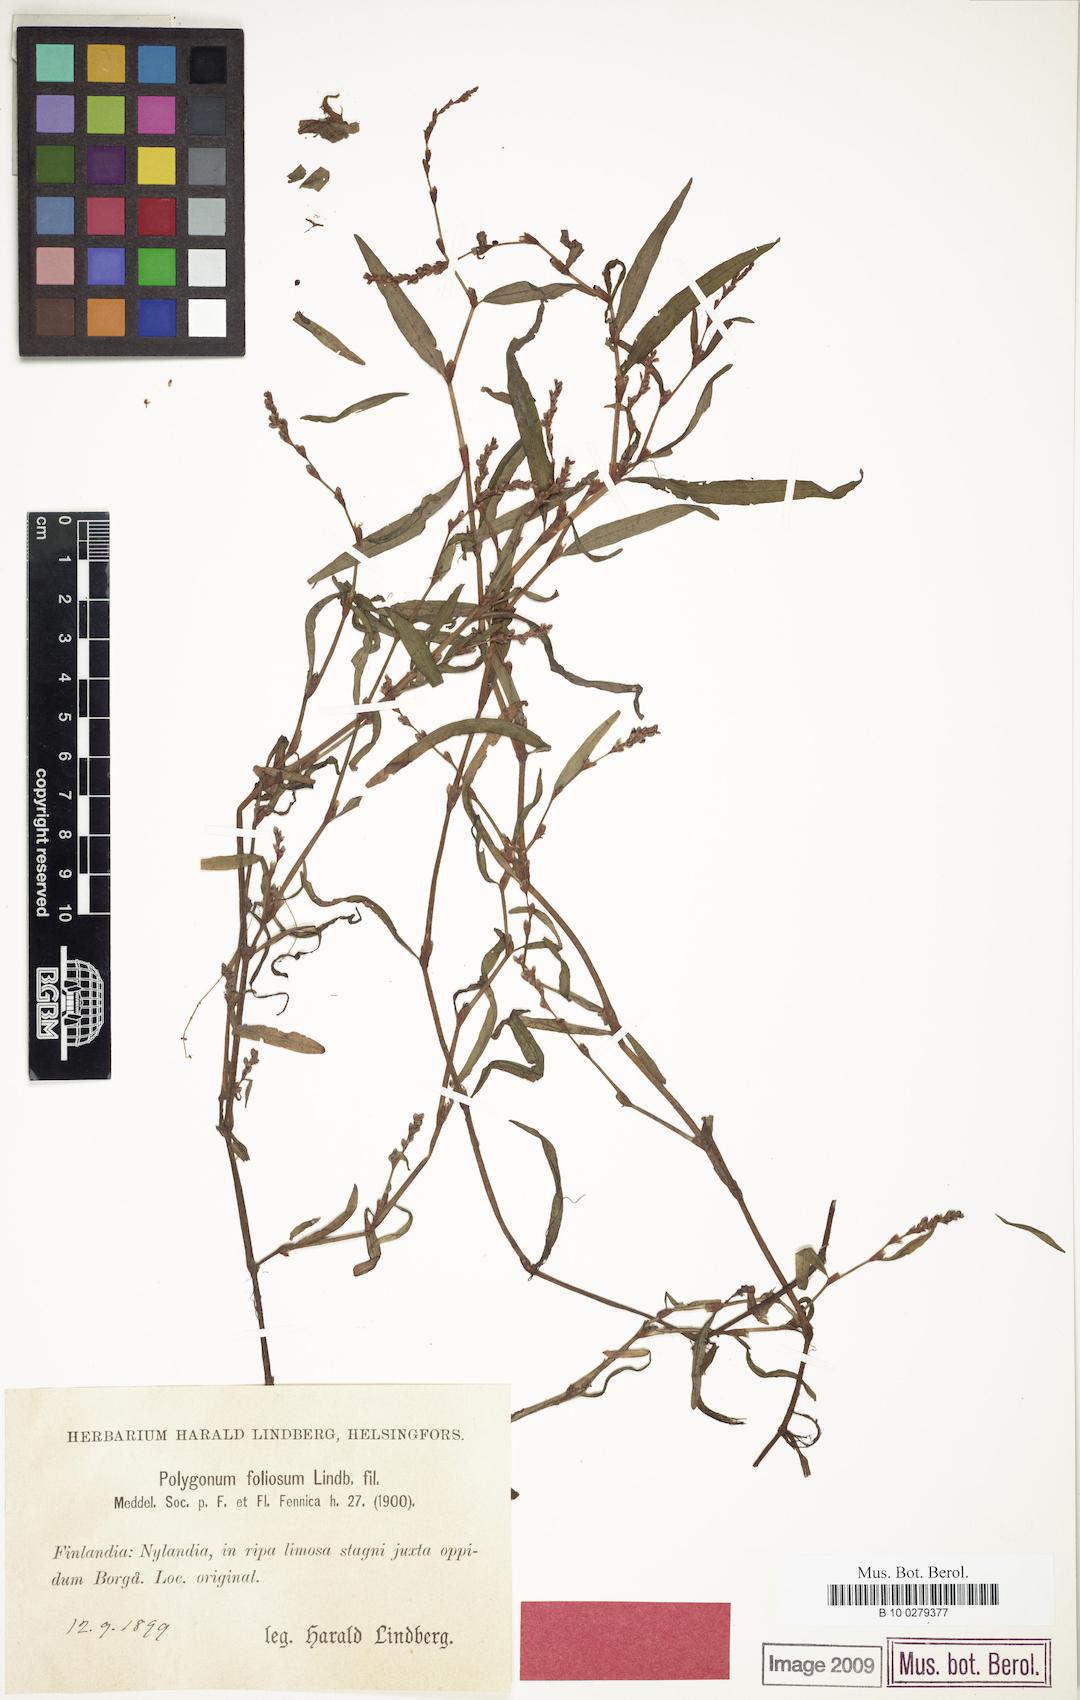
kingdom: Plantae
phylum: Tracheophyta
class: Magnoliopsida
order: Caryophyllales
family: Polygonaceae
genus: Persicaria
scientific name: Persicaria foliosa
